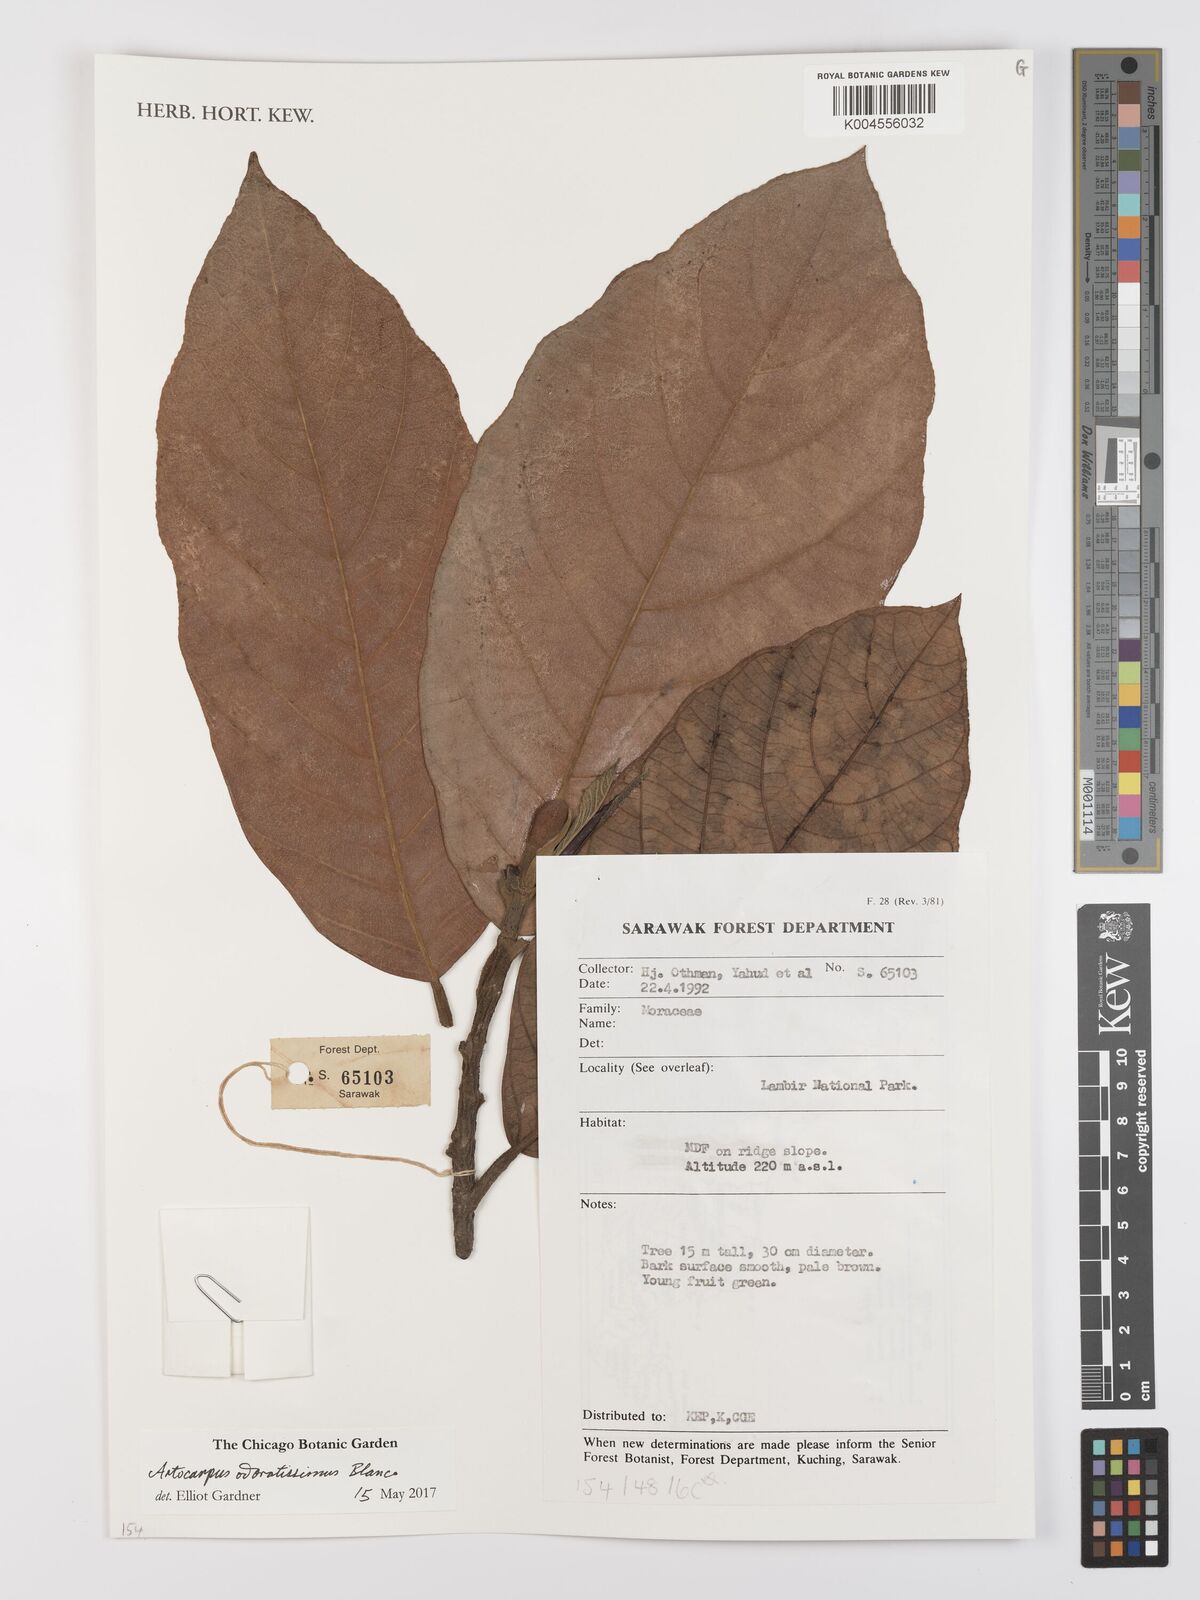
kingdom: Plantae
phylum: Tracheophyta
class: Magnoliopsida
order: Rosales
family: Moraceae
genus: Artocarpus
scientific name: Artocarpus odoratissimus
